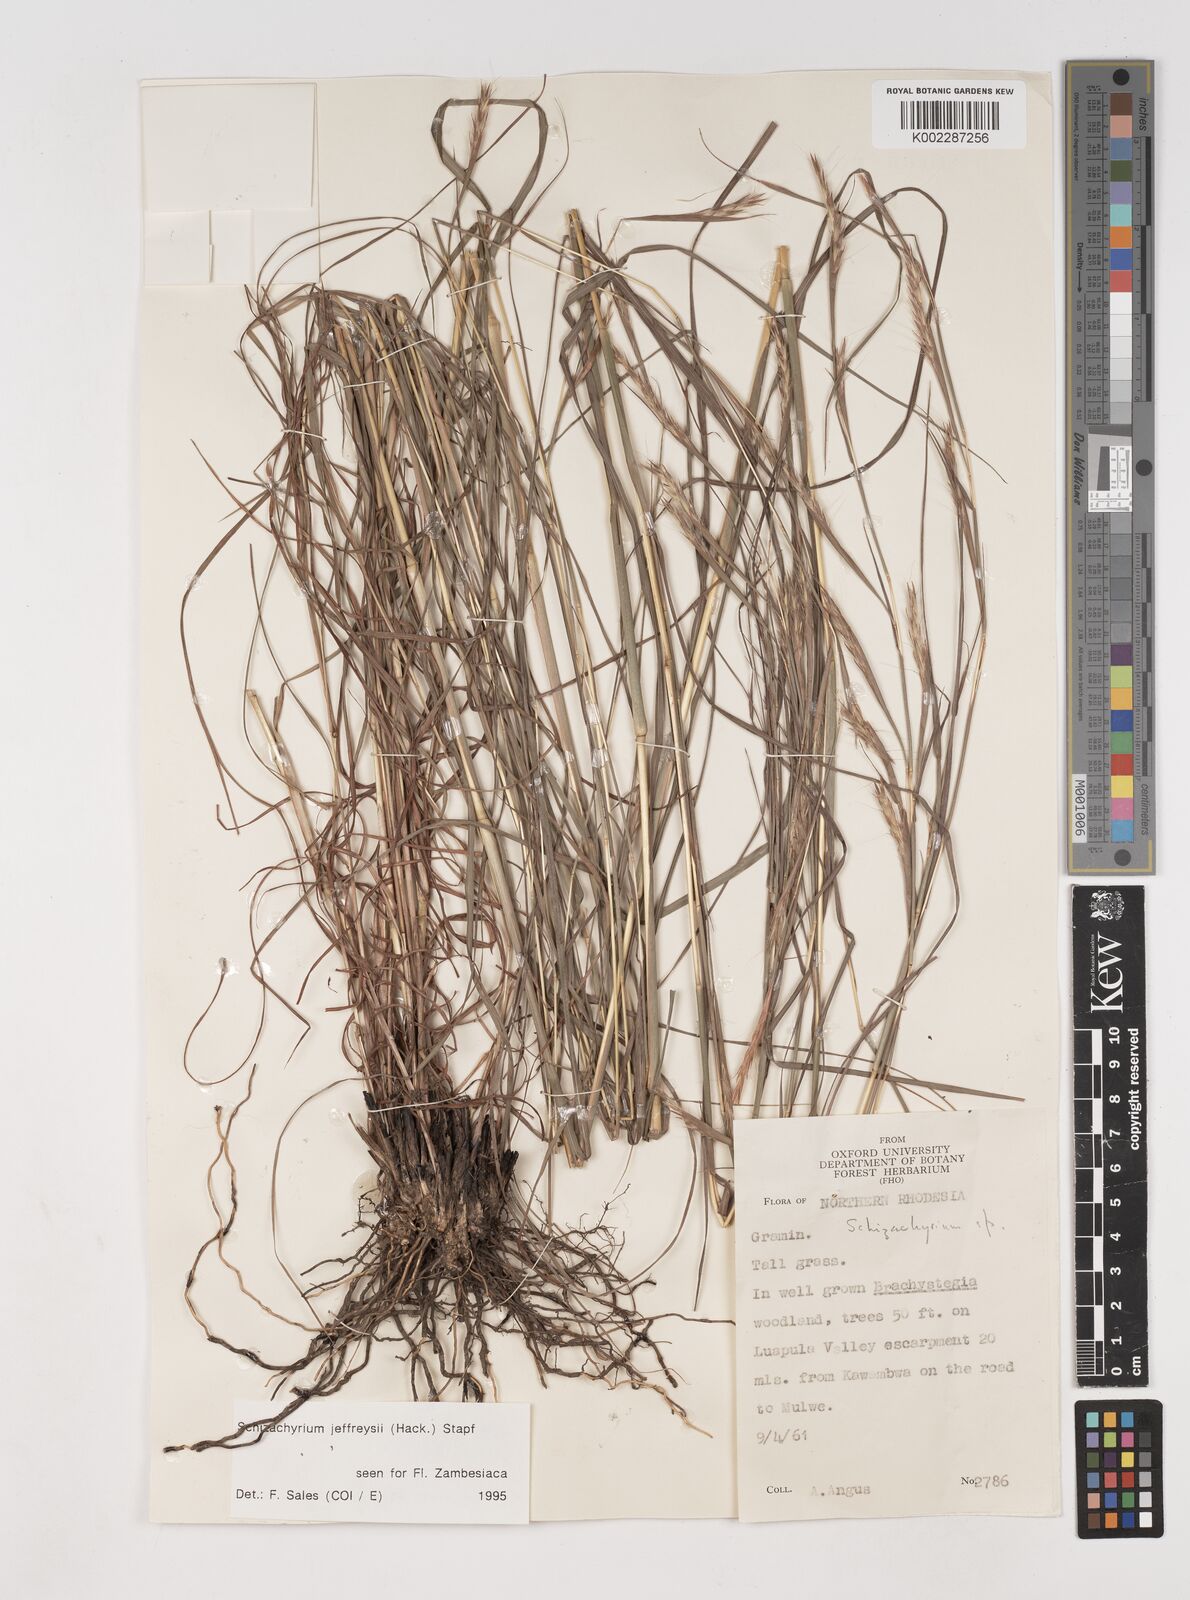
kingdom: Plantae
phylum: Tracheophyta
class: Liliopsida
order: Poales
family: Poaceae
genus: Schizachyrium
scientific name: Schizachyrium jeffreysii
